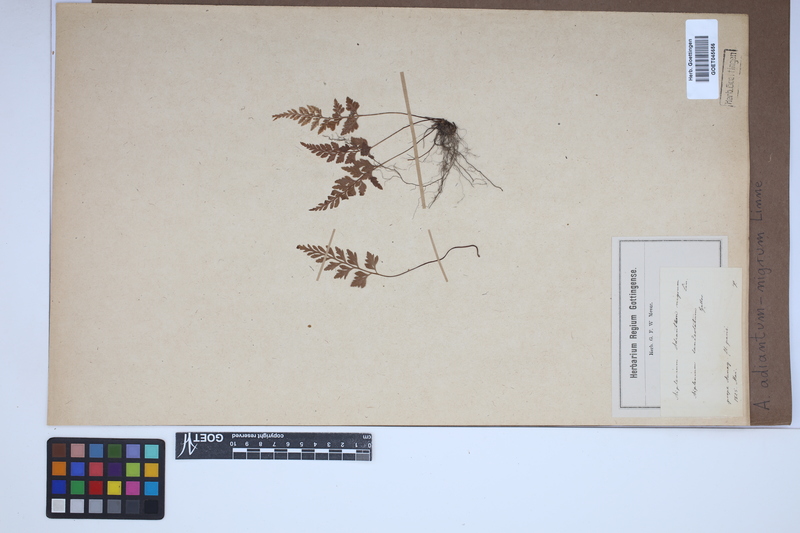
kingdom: Plantae
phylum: Tracheophyta
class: Polypodiopsida
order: Polypodiales
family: Aspleniaceae
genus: Asplenium
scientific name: Asplenium adiantum-nigrum
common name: Black spleenwort
